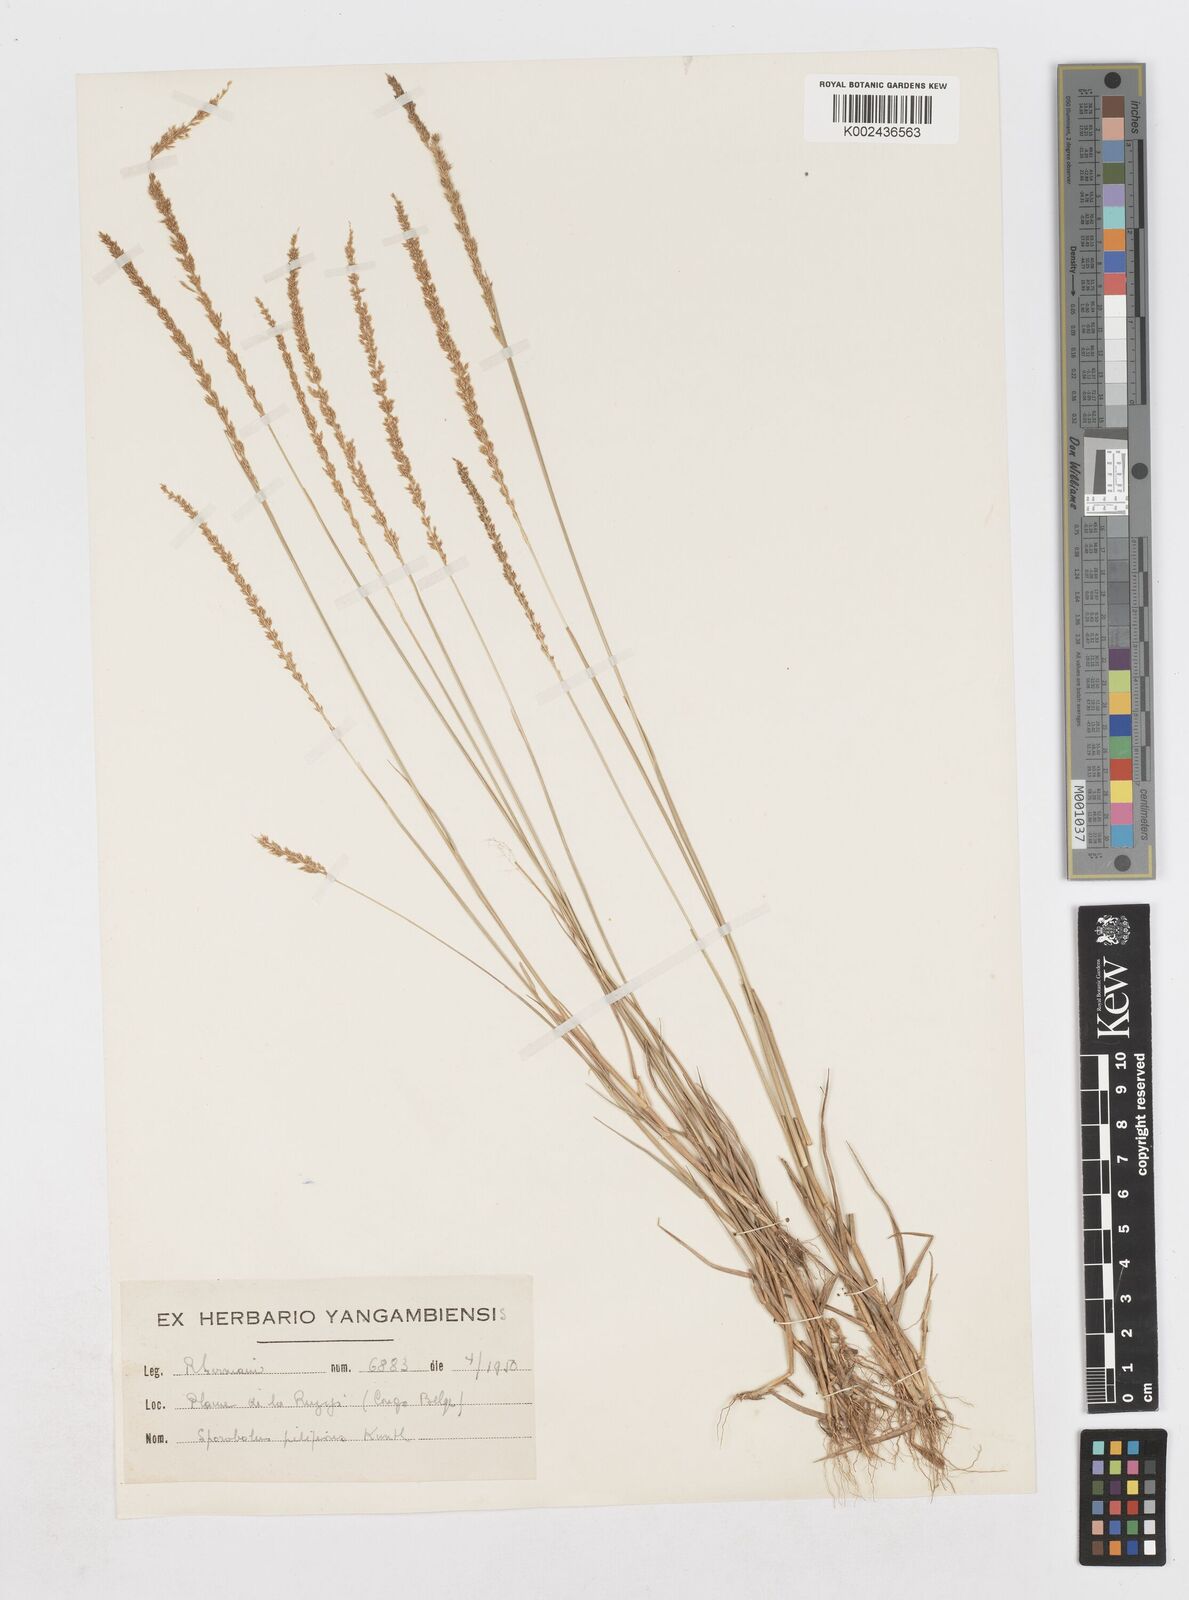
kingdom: Plantae
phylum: Tracheophyta
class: Liliopsida
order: Poales
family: Poaceae
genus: Sporobolus
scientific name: Sporobolus pilifer
